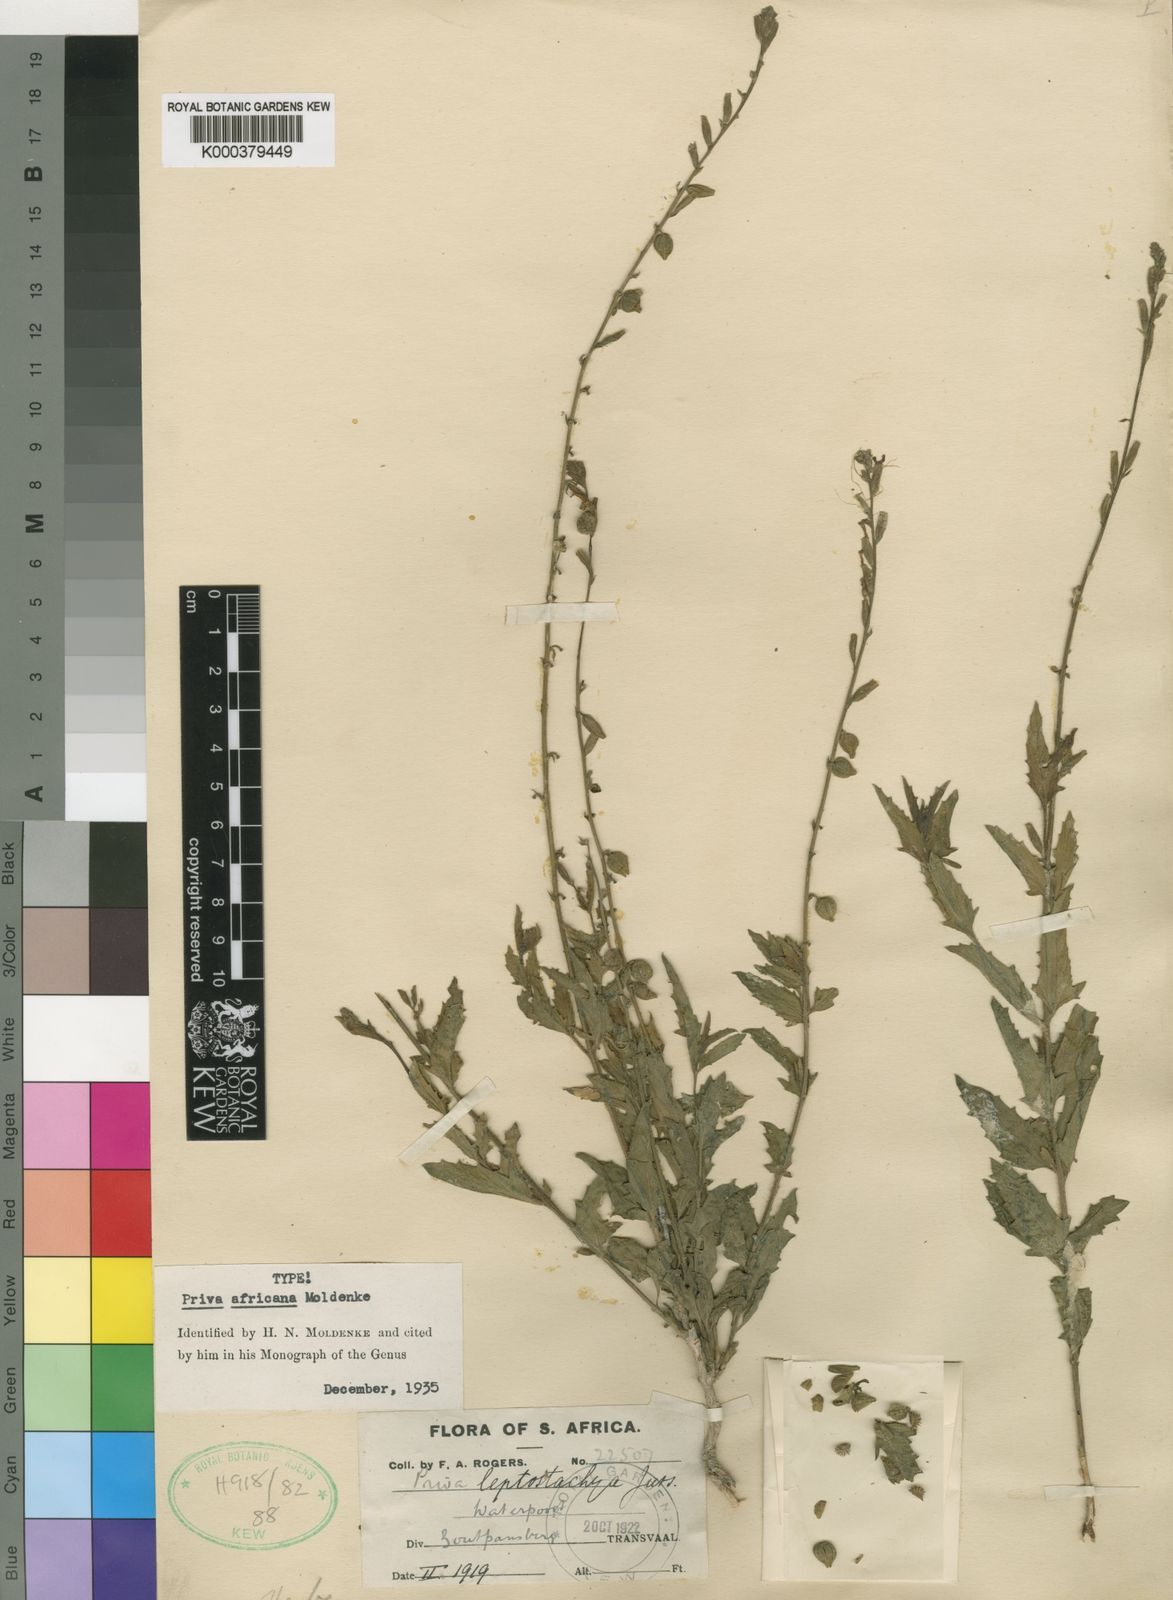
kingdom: Plantae
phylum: Tracheophyta
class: Magnoliopsida
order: Lamiales
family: Verbenaceae
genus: Priva
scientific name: Priva africana
